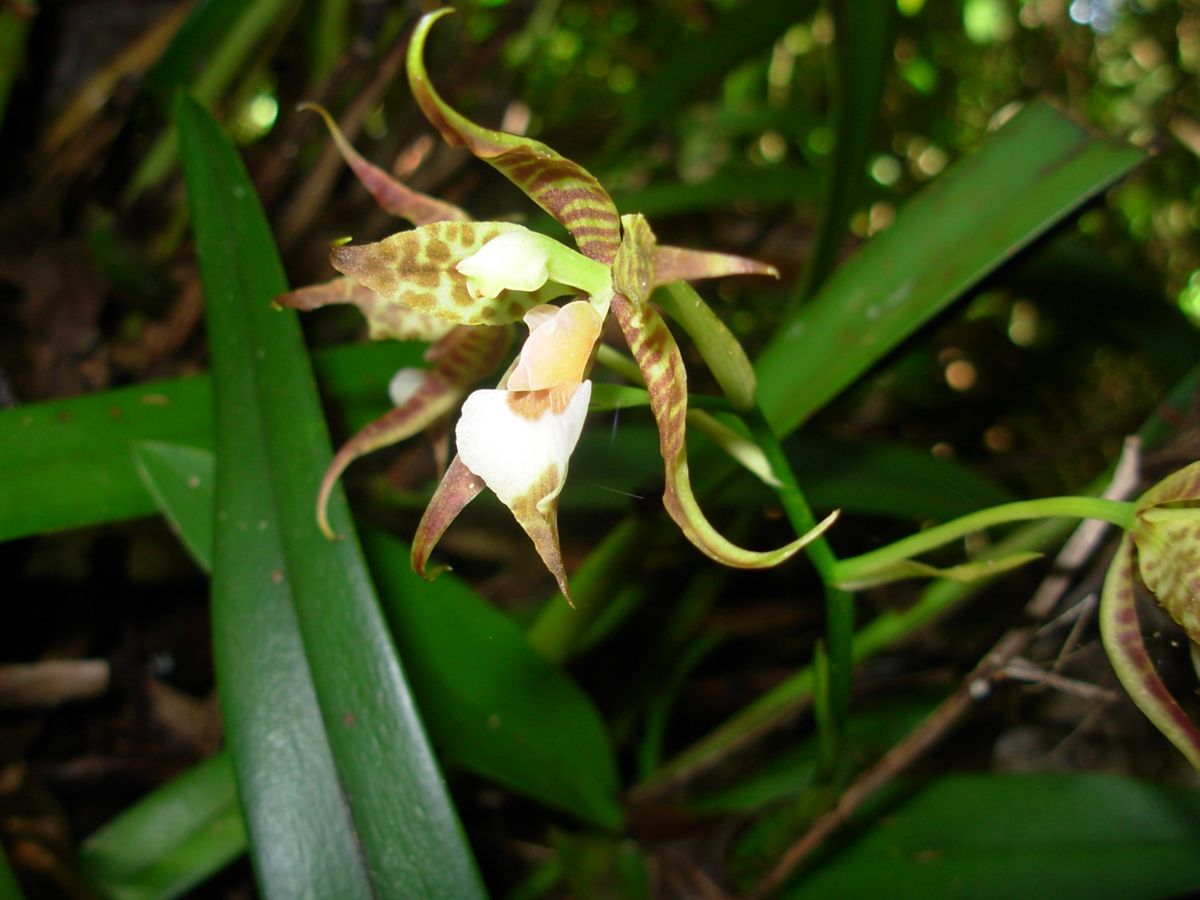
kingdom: Plantae
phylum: Tracheophyta
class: Liliopsida
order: Asparagales
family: Orchidaceae
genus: Rhynchostele
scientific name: Rhynchostele cordata
